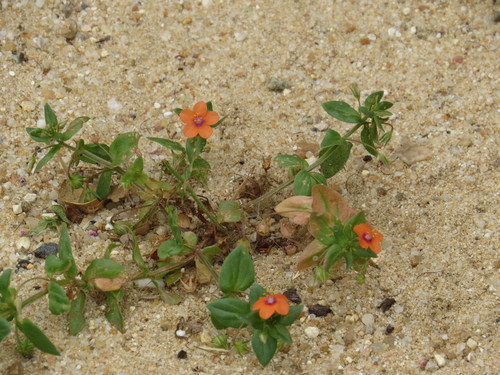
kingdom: Plantae
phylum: Tracheophyta
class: Magnoliopsida
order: Ericales
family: Primulaceae
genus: Lysimachia
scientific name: Lysimachia arvensis
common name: Scarlet pimpernel
